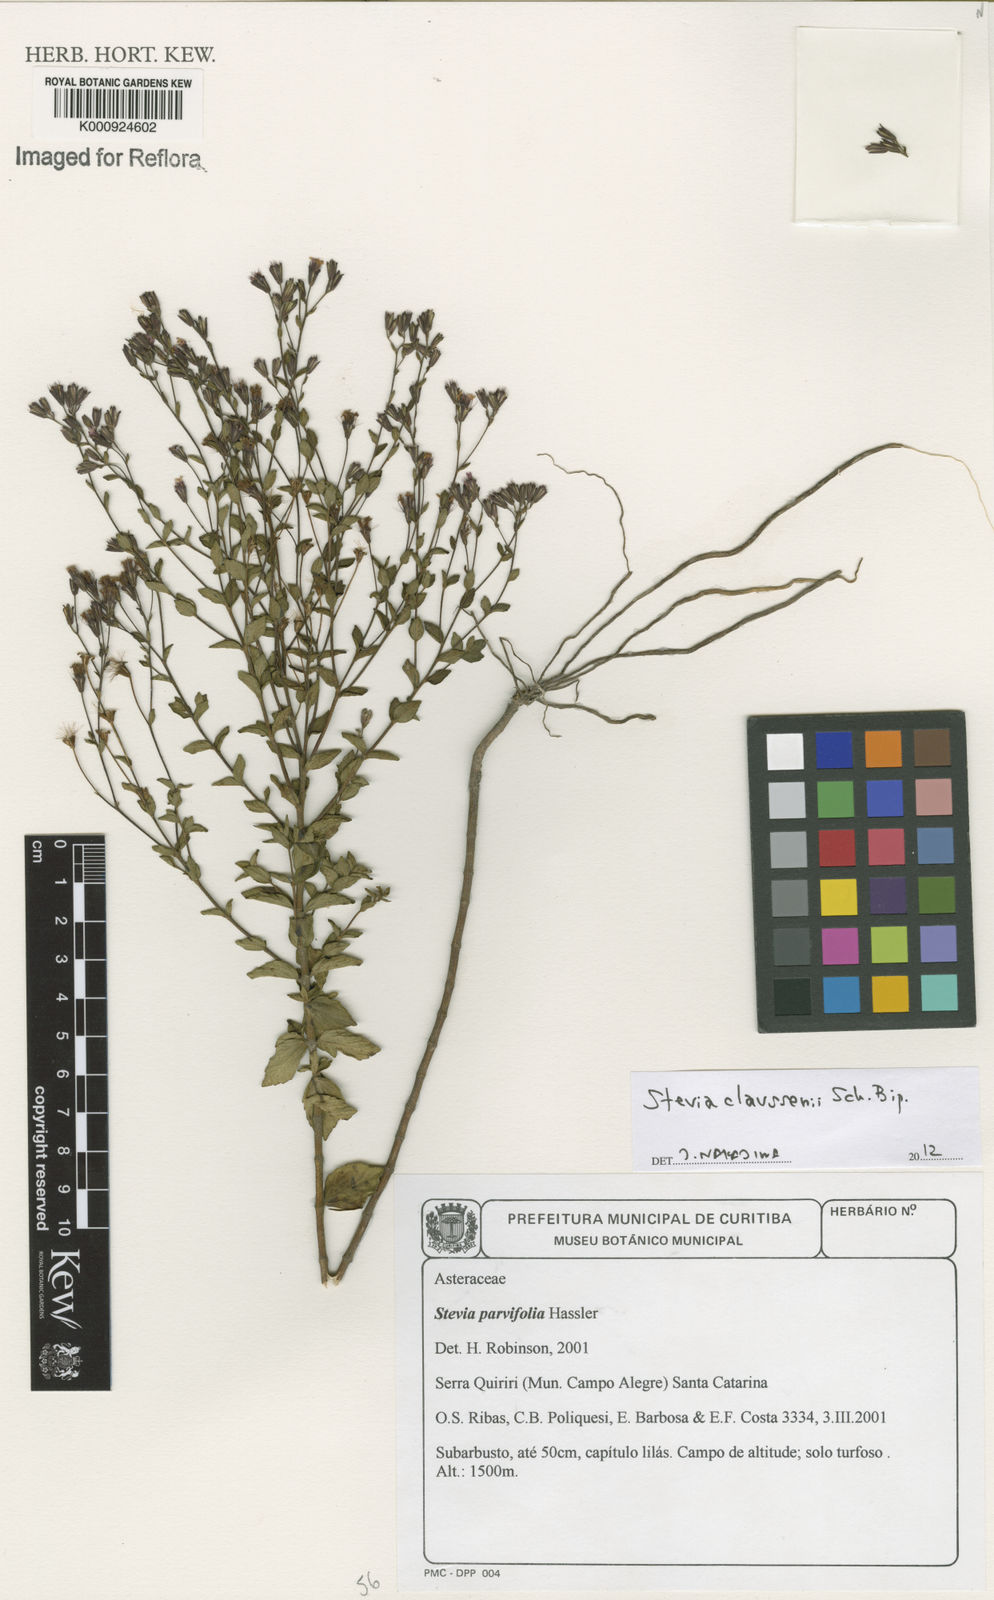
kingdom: Plantae
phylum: Tracheophyta
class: Magnoliopsida
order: Asterales
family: Asteraceae
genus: Stevia
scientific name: Stevia claussenii
